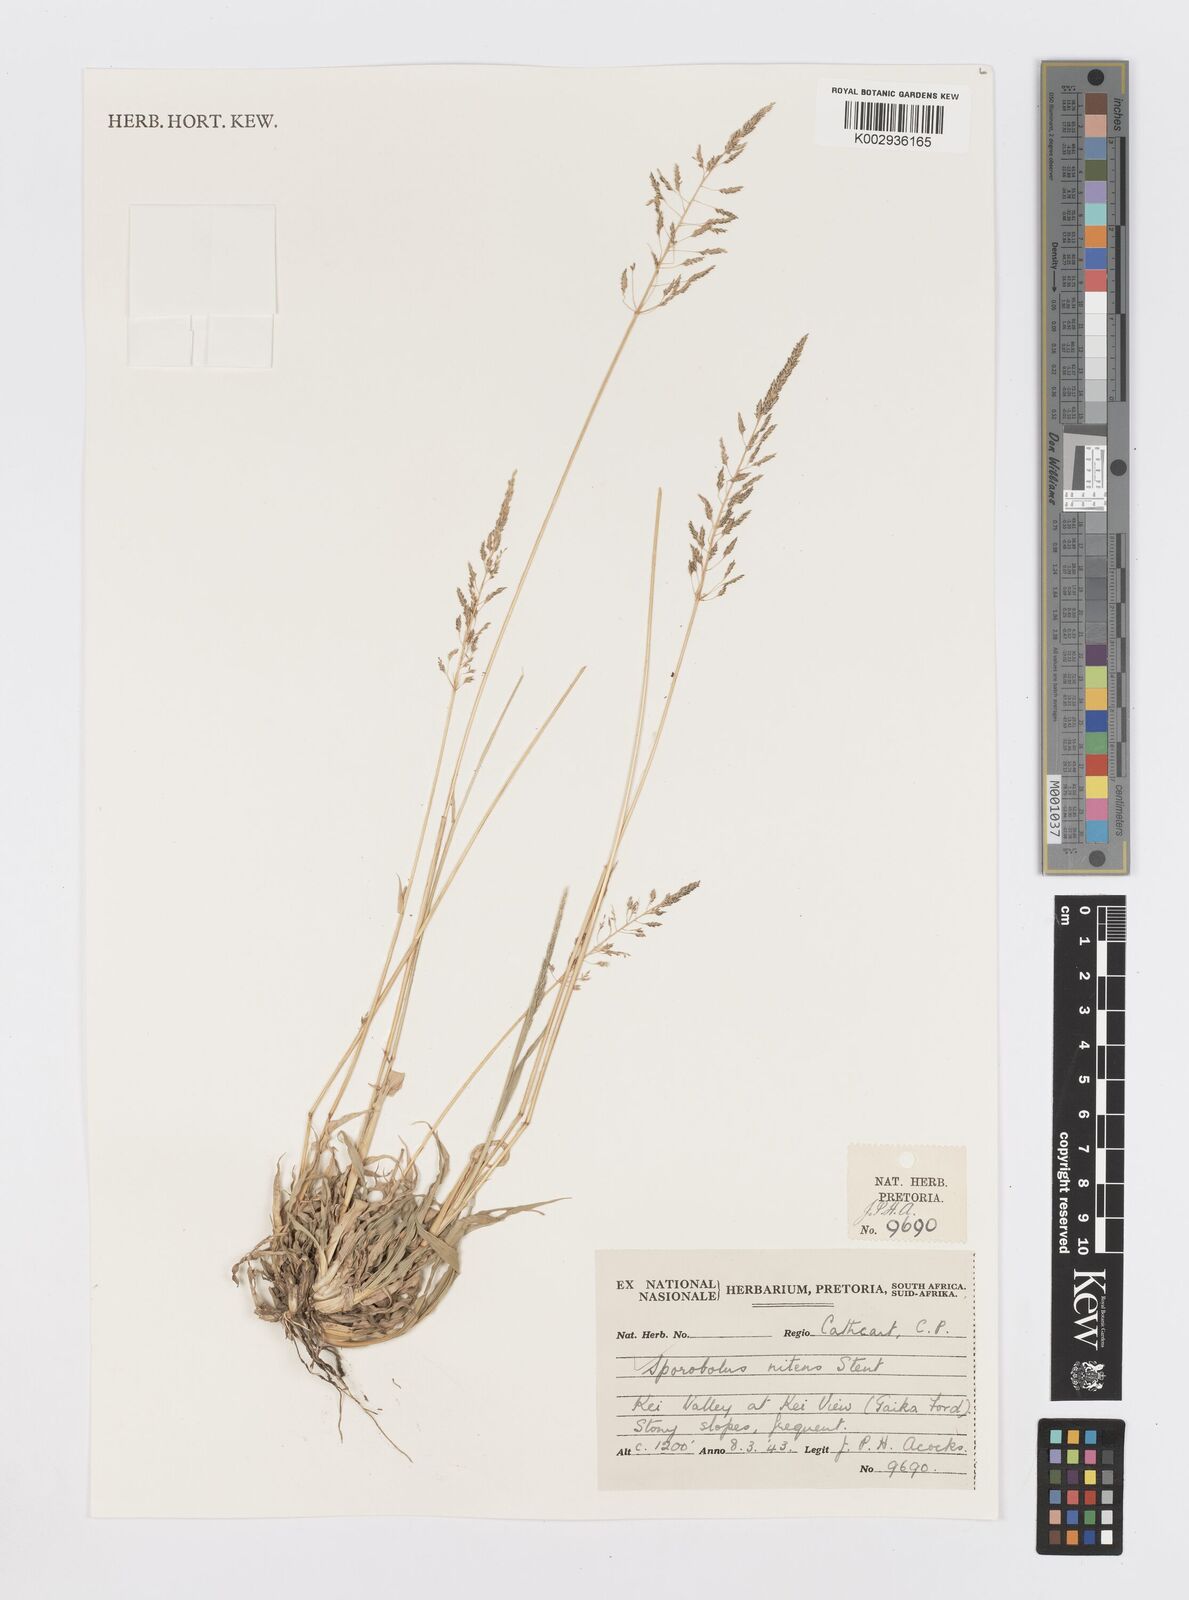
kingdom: Plantae
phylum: Tracheophyta
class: Liliopsida
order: Poales
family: Poaceae
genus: Sporobolus
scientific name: Sporobolus nitens
